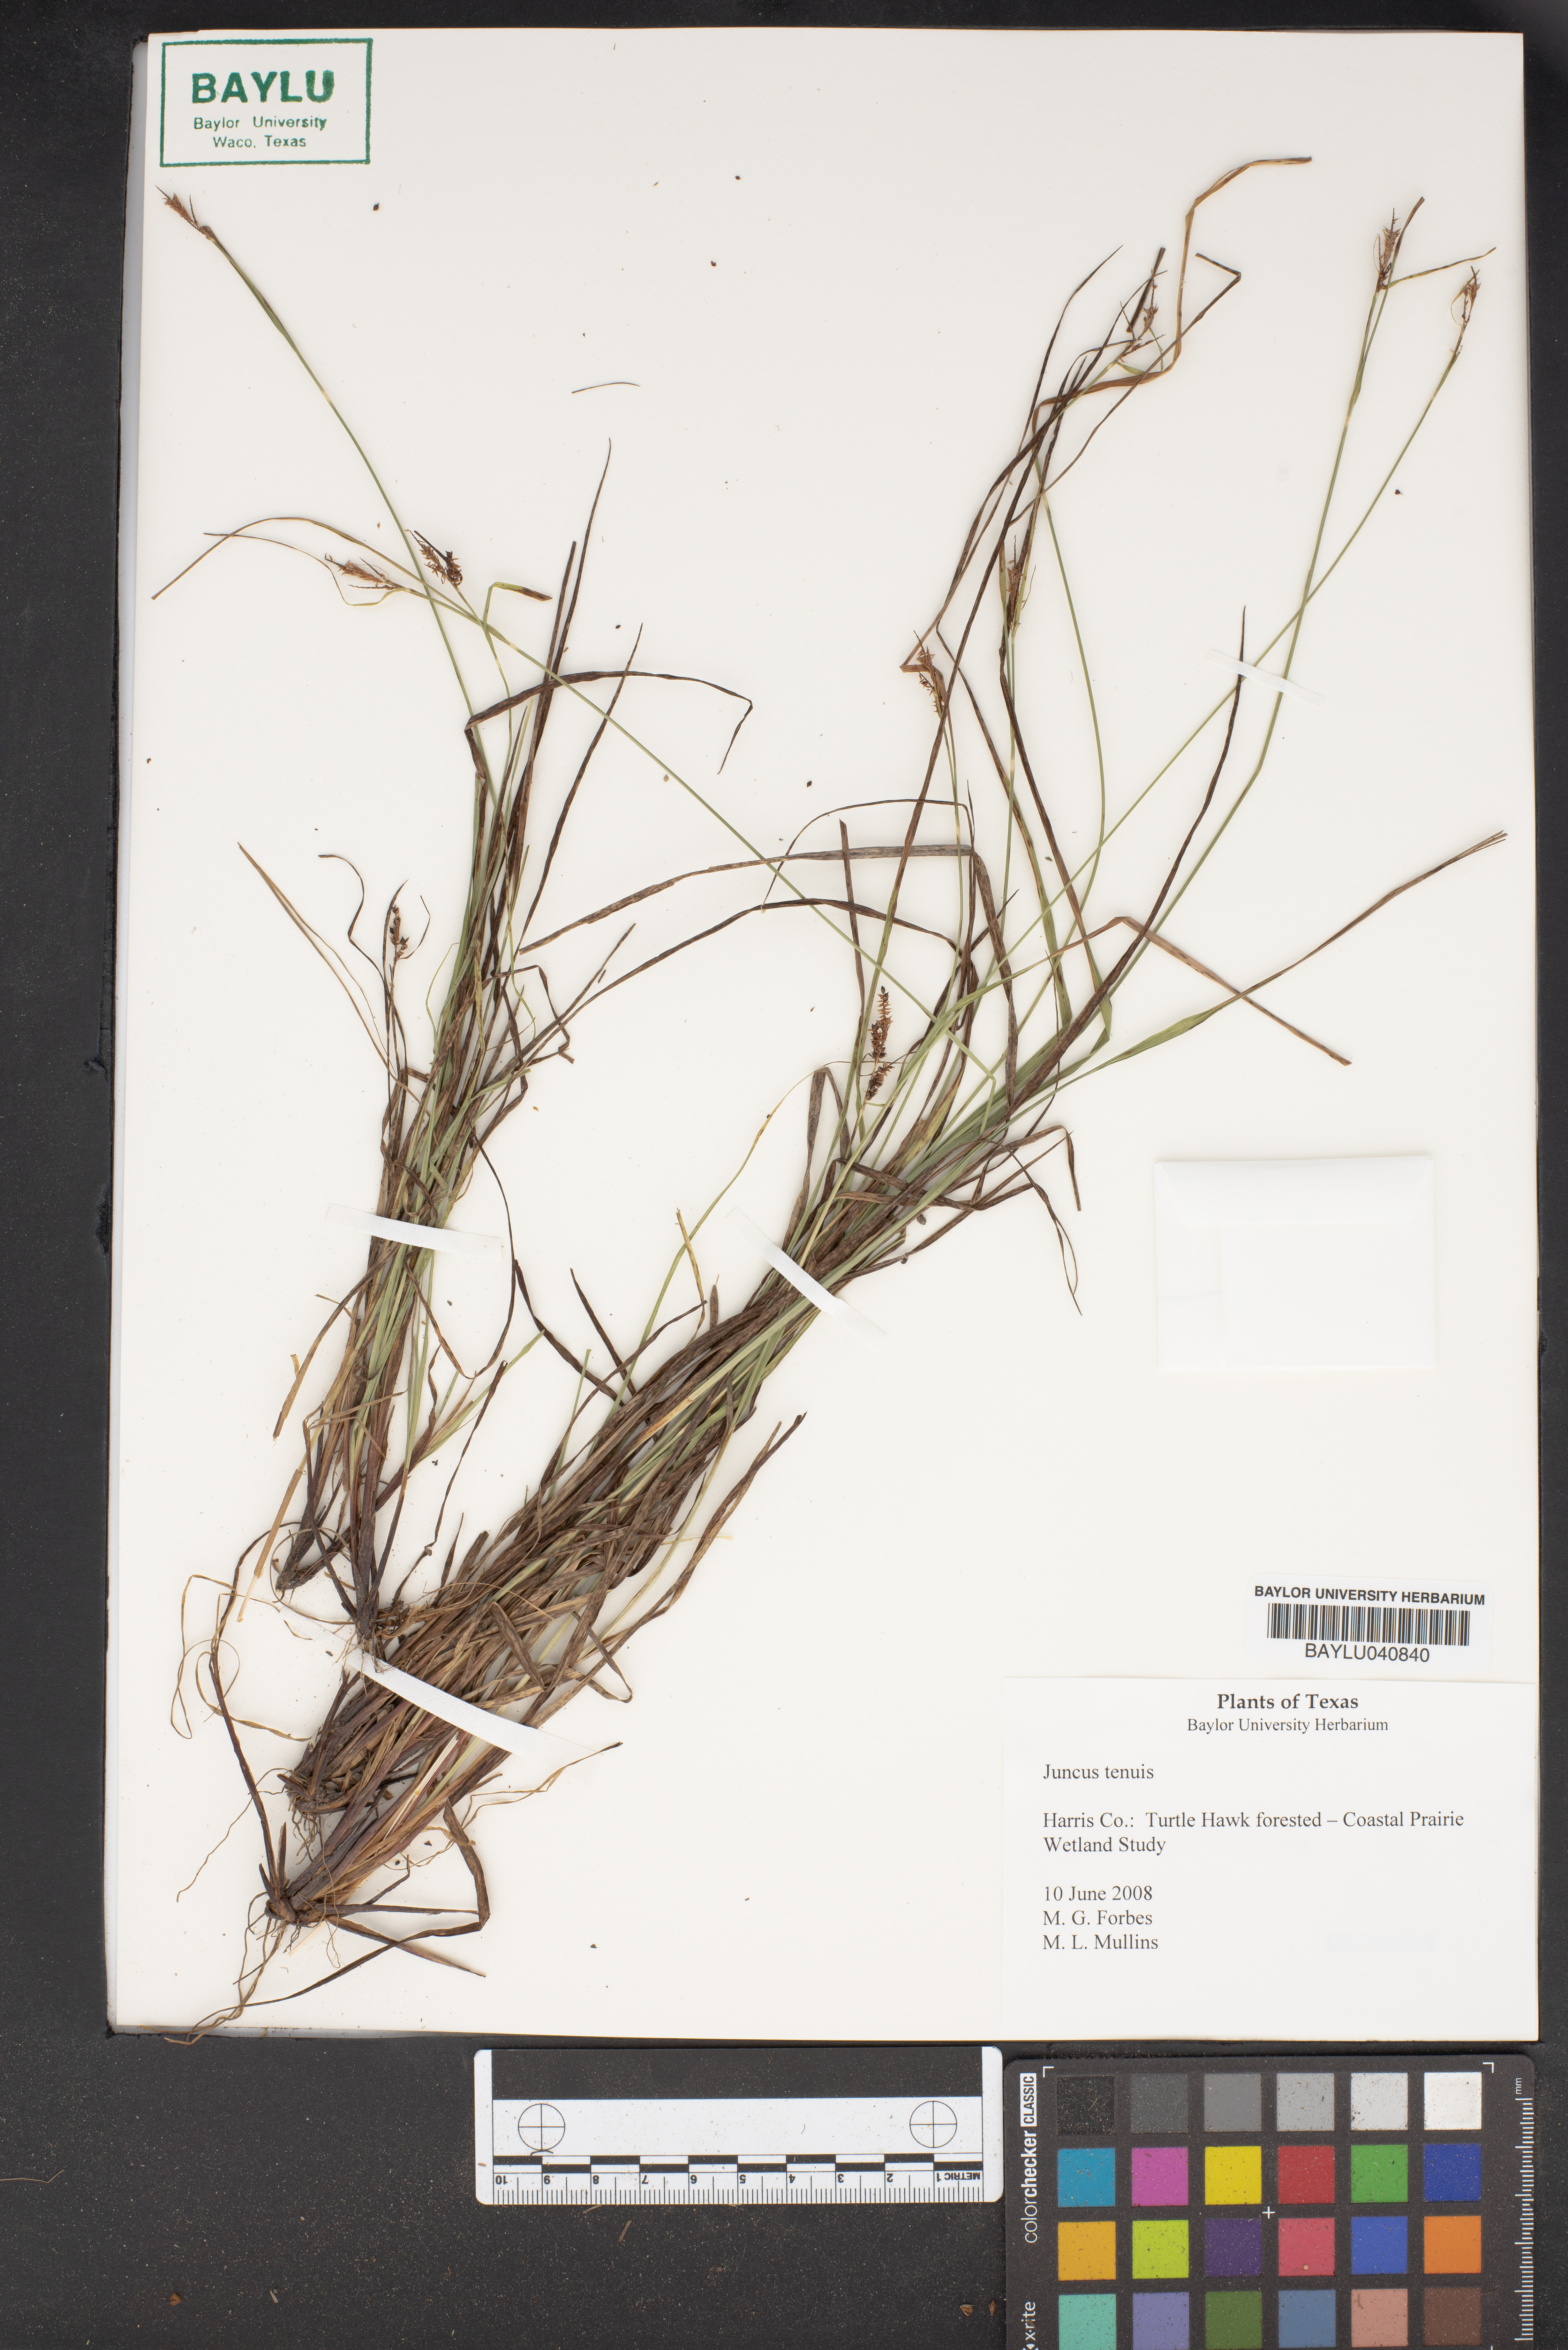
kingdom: Plantae
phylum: Tracheophyta
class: Liliopsida
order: Poales
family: Juncaceae
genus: Juncus
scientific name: Juncus tenuis
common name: Slender rush
